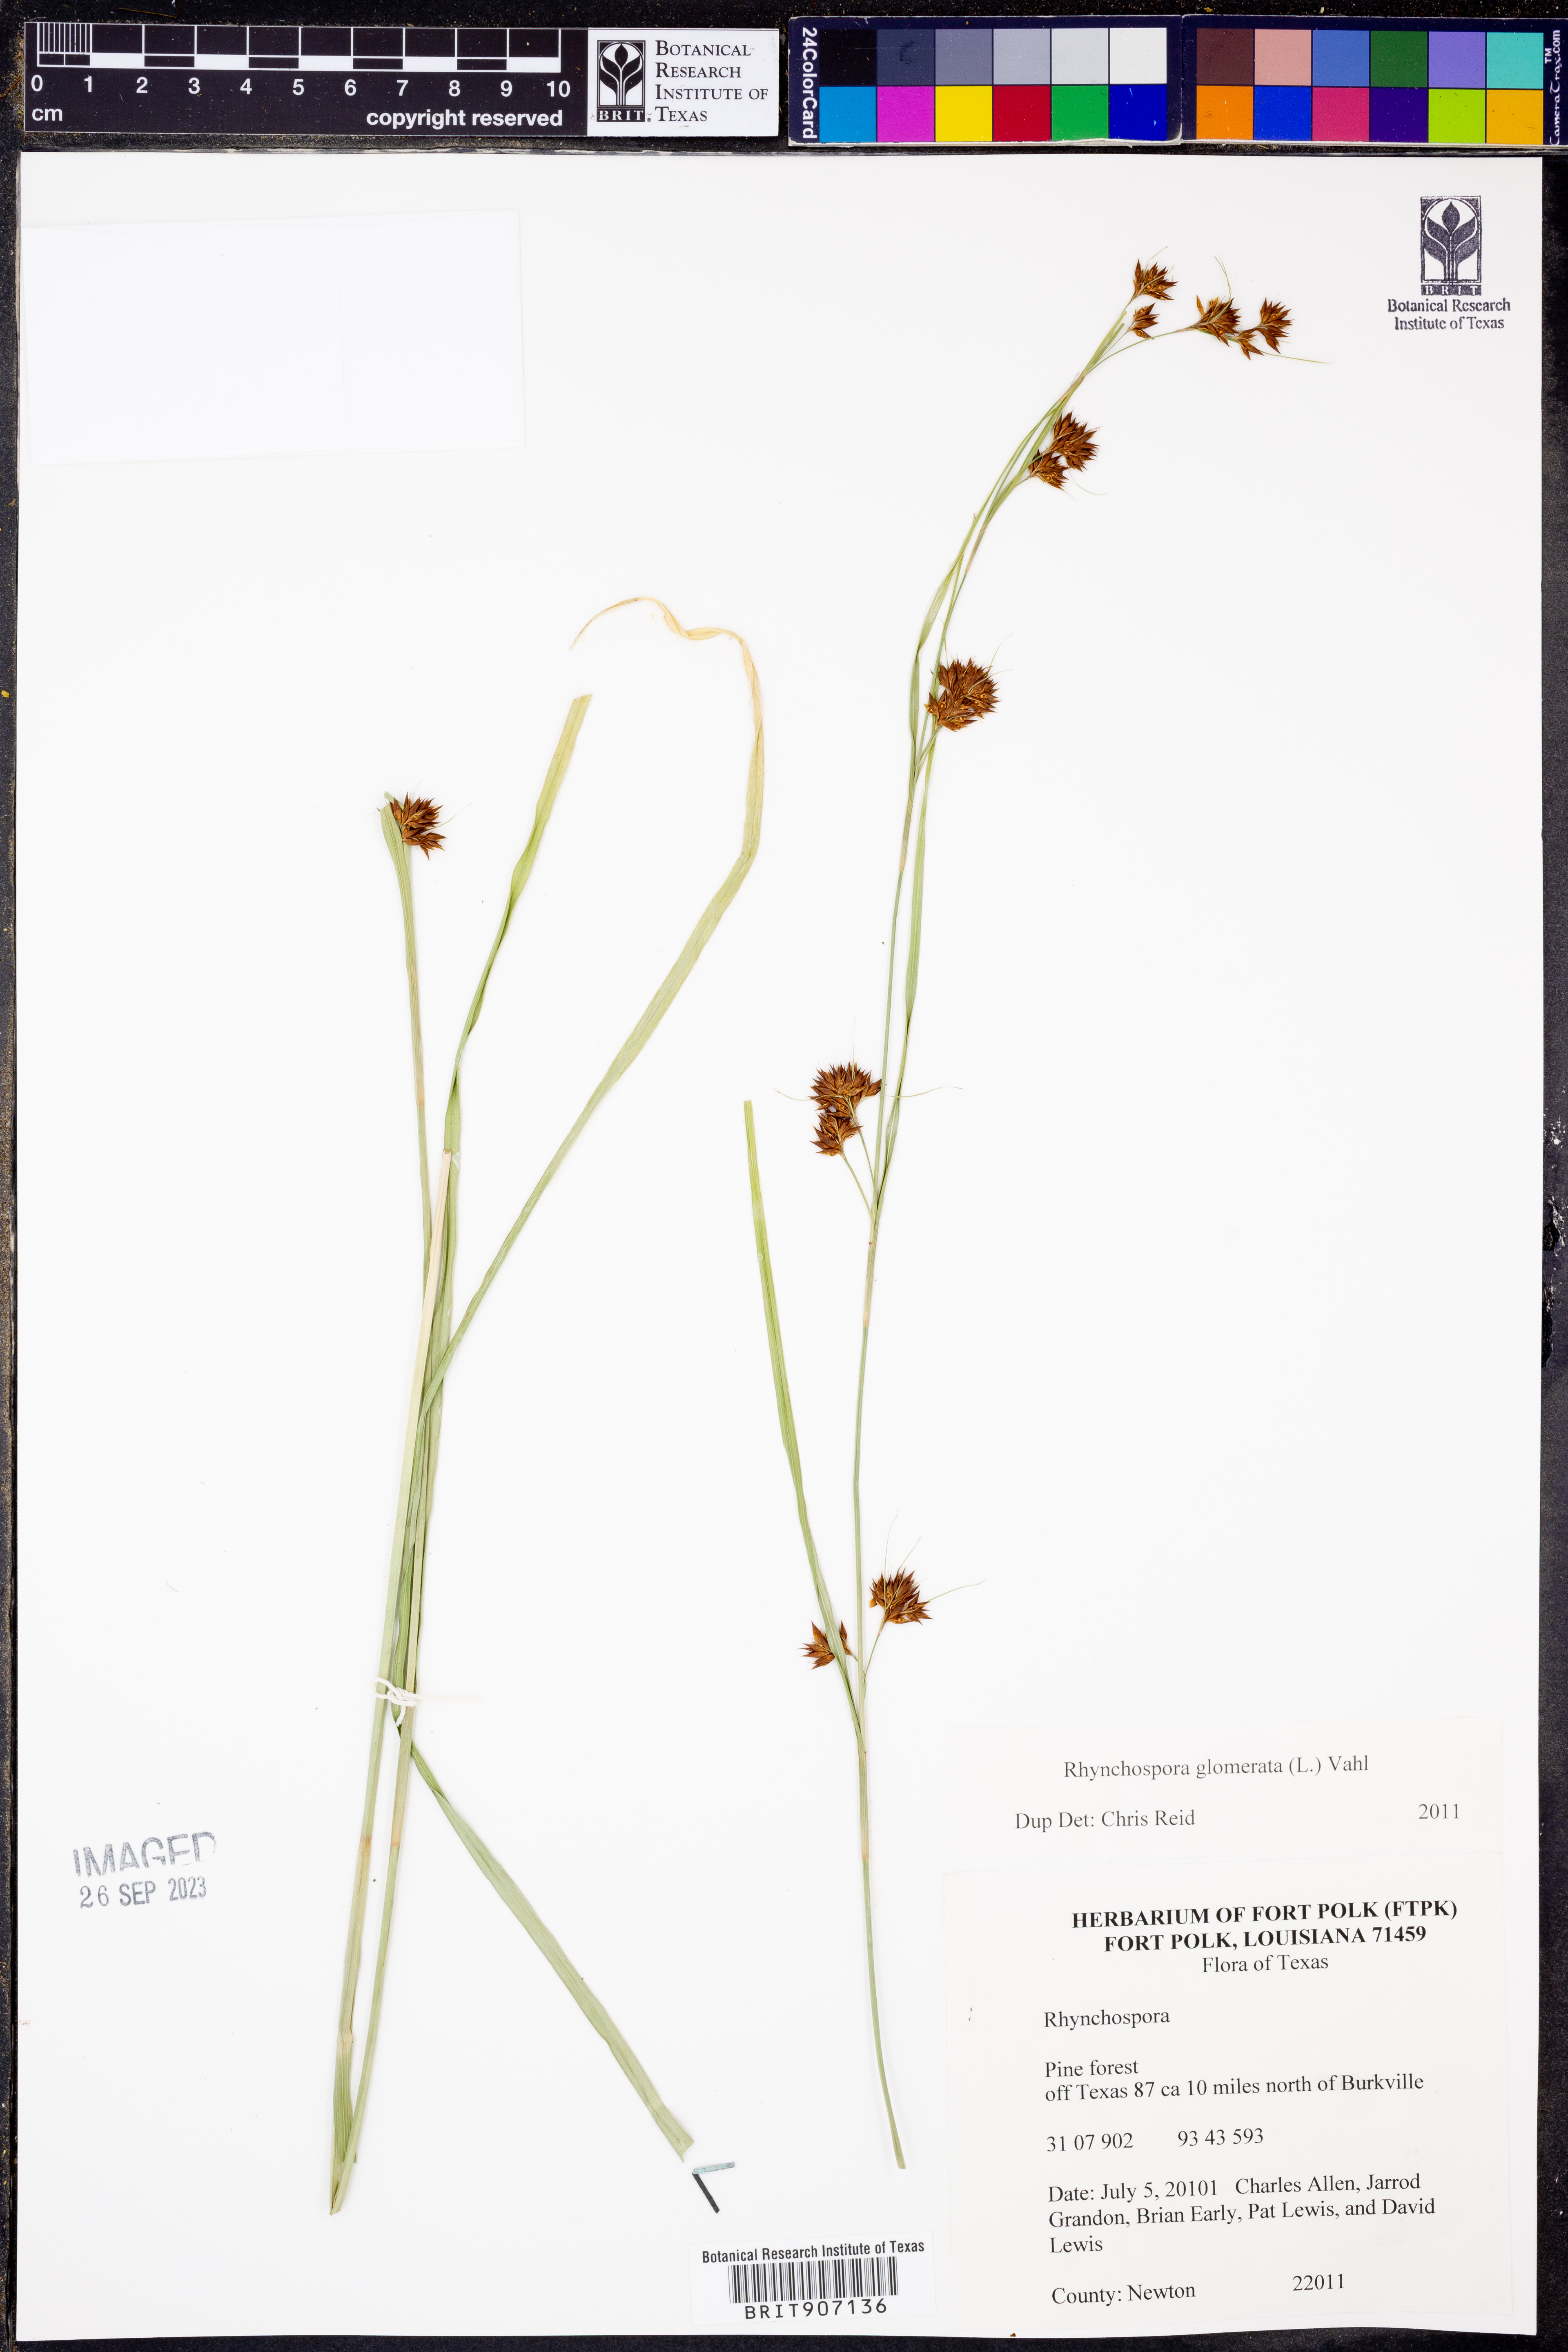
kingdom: Plantae
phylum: Tracheophyta
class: Liliopsida
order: Poales
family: Cyperaceae
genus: Rhynchospora
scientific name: Rhynchospora glomerata
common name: Cluster beak sedge
